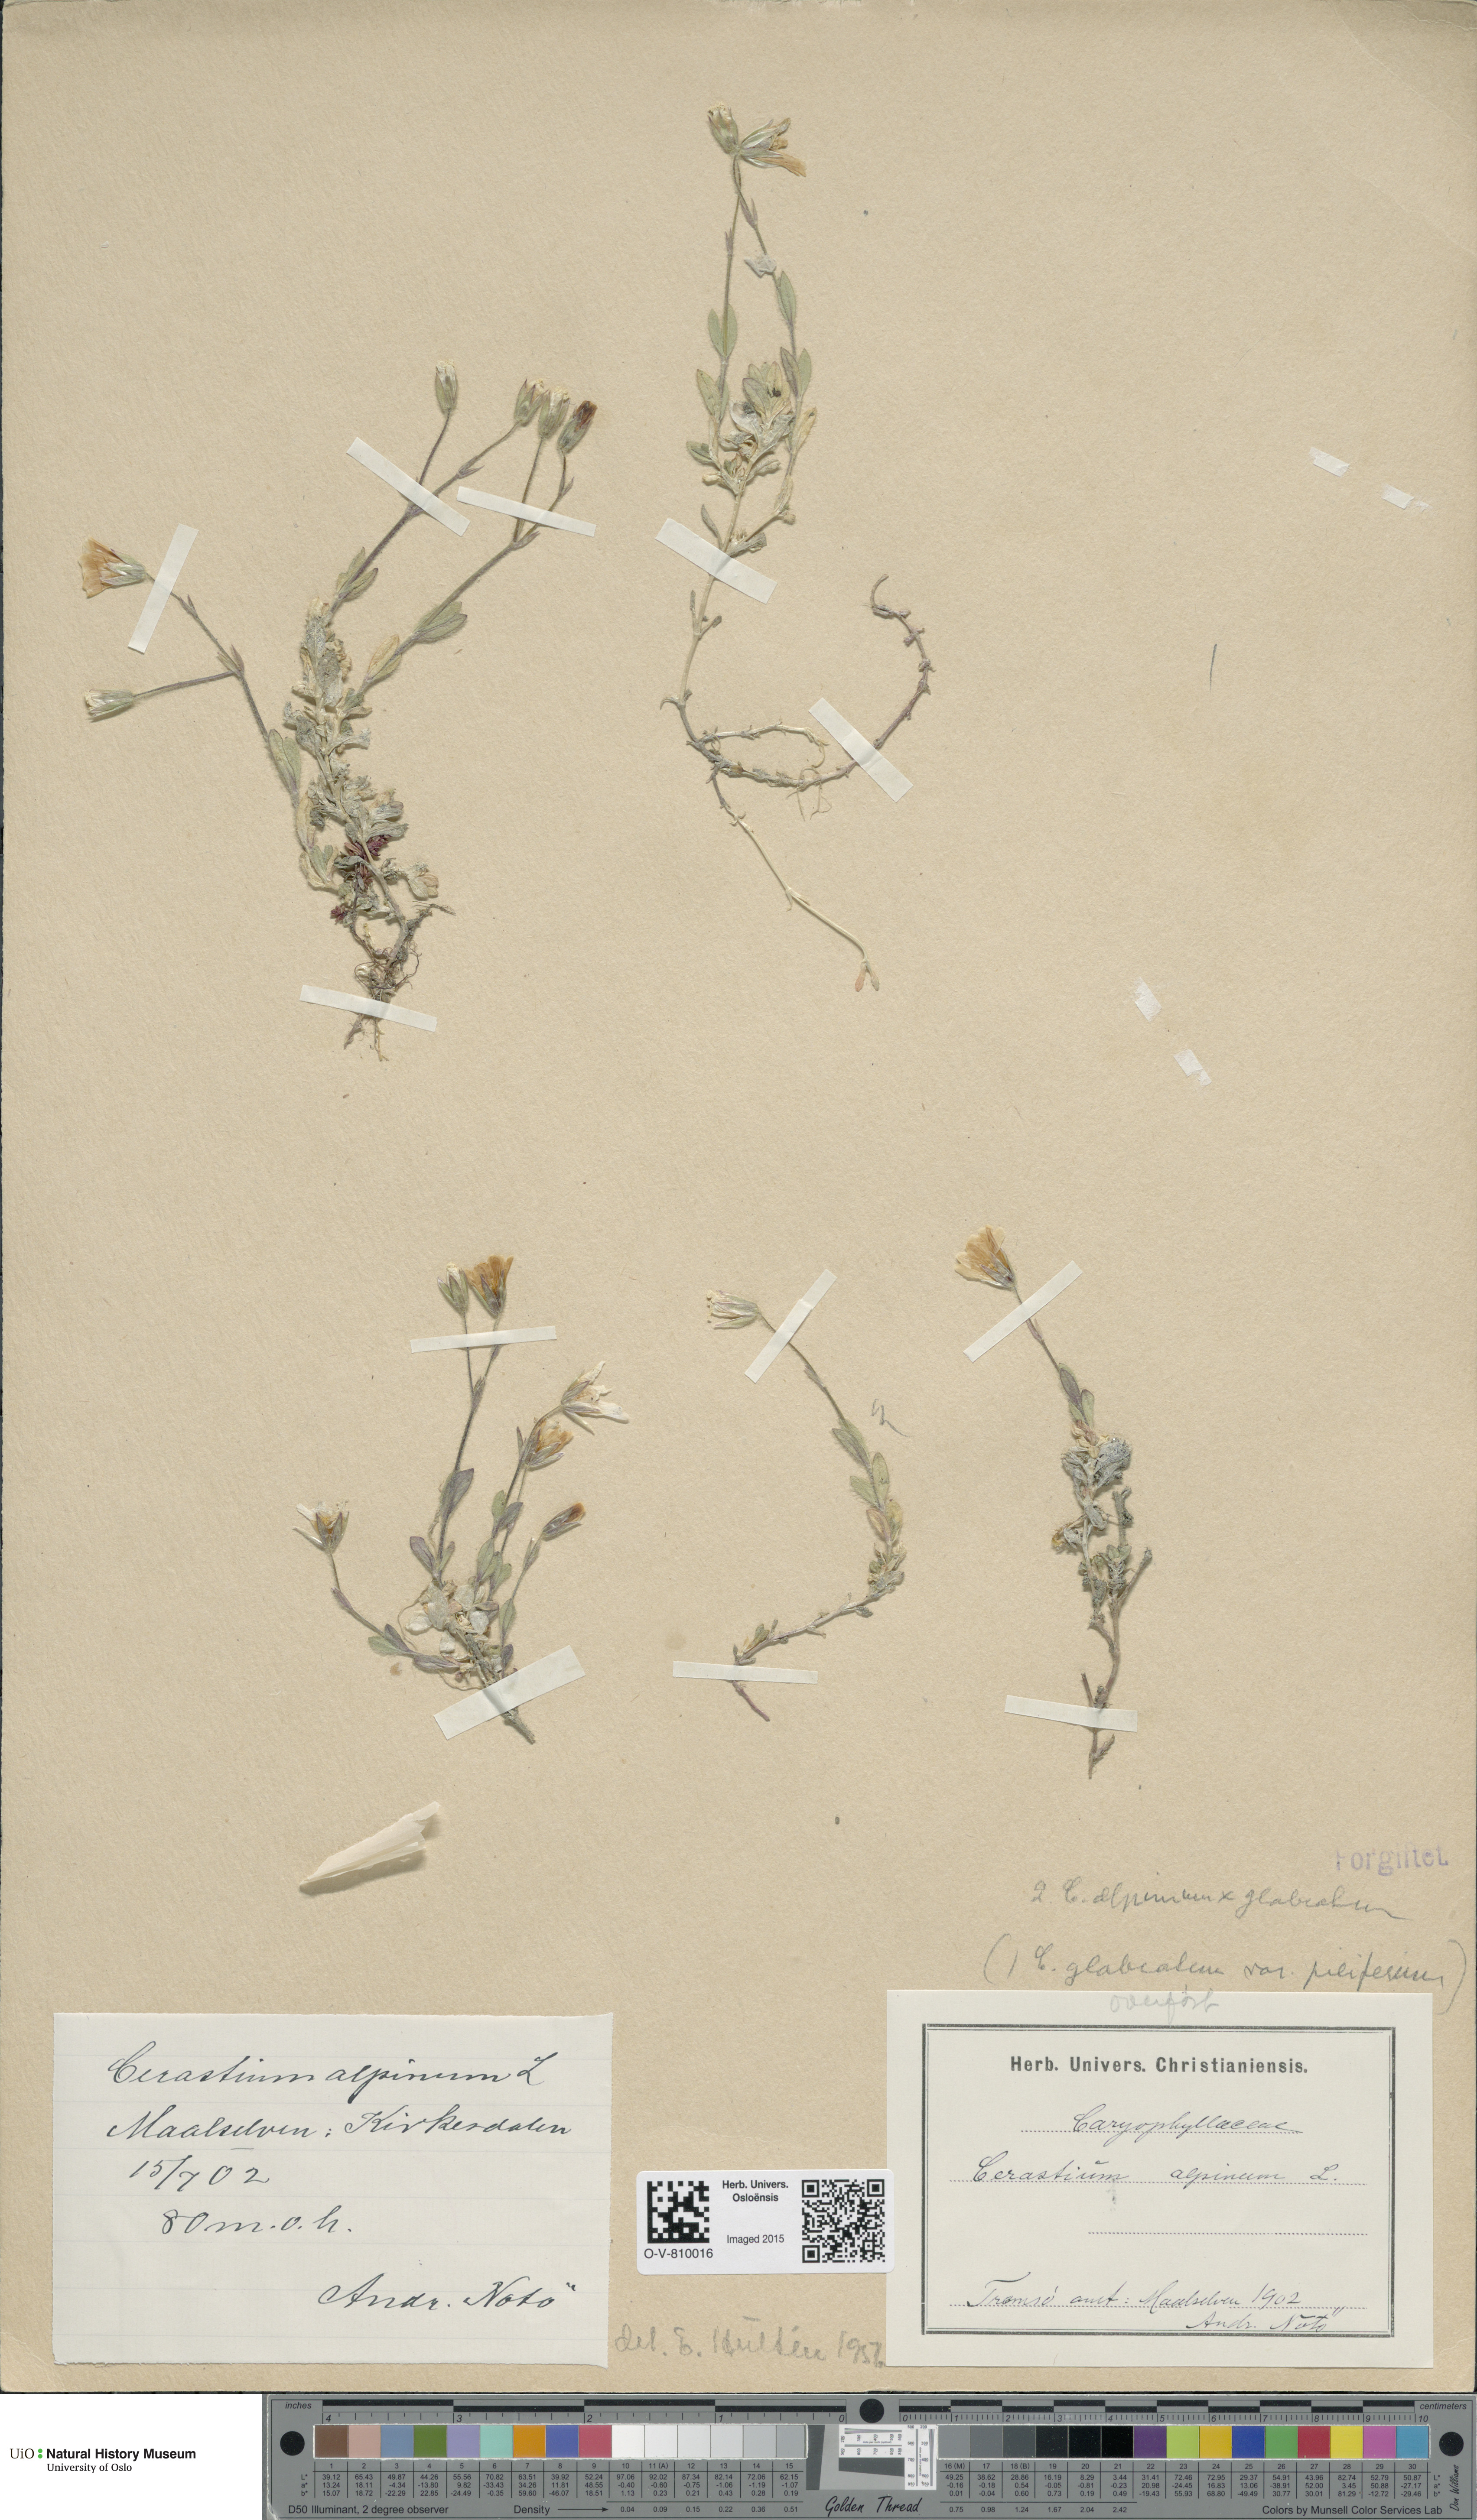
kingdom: Plantae
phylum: Tracheophyta
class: Magnoliopsida
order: Caryophyllales
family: Caryophyllaceae
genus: Cerastium
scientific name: Cerastium
